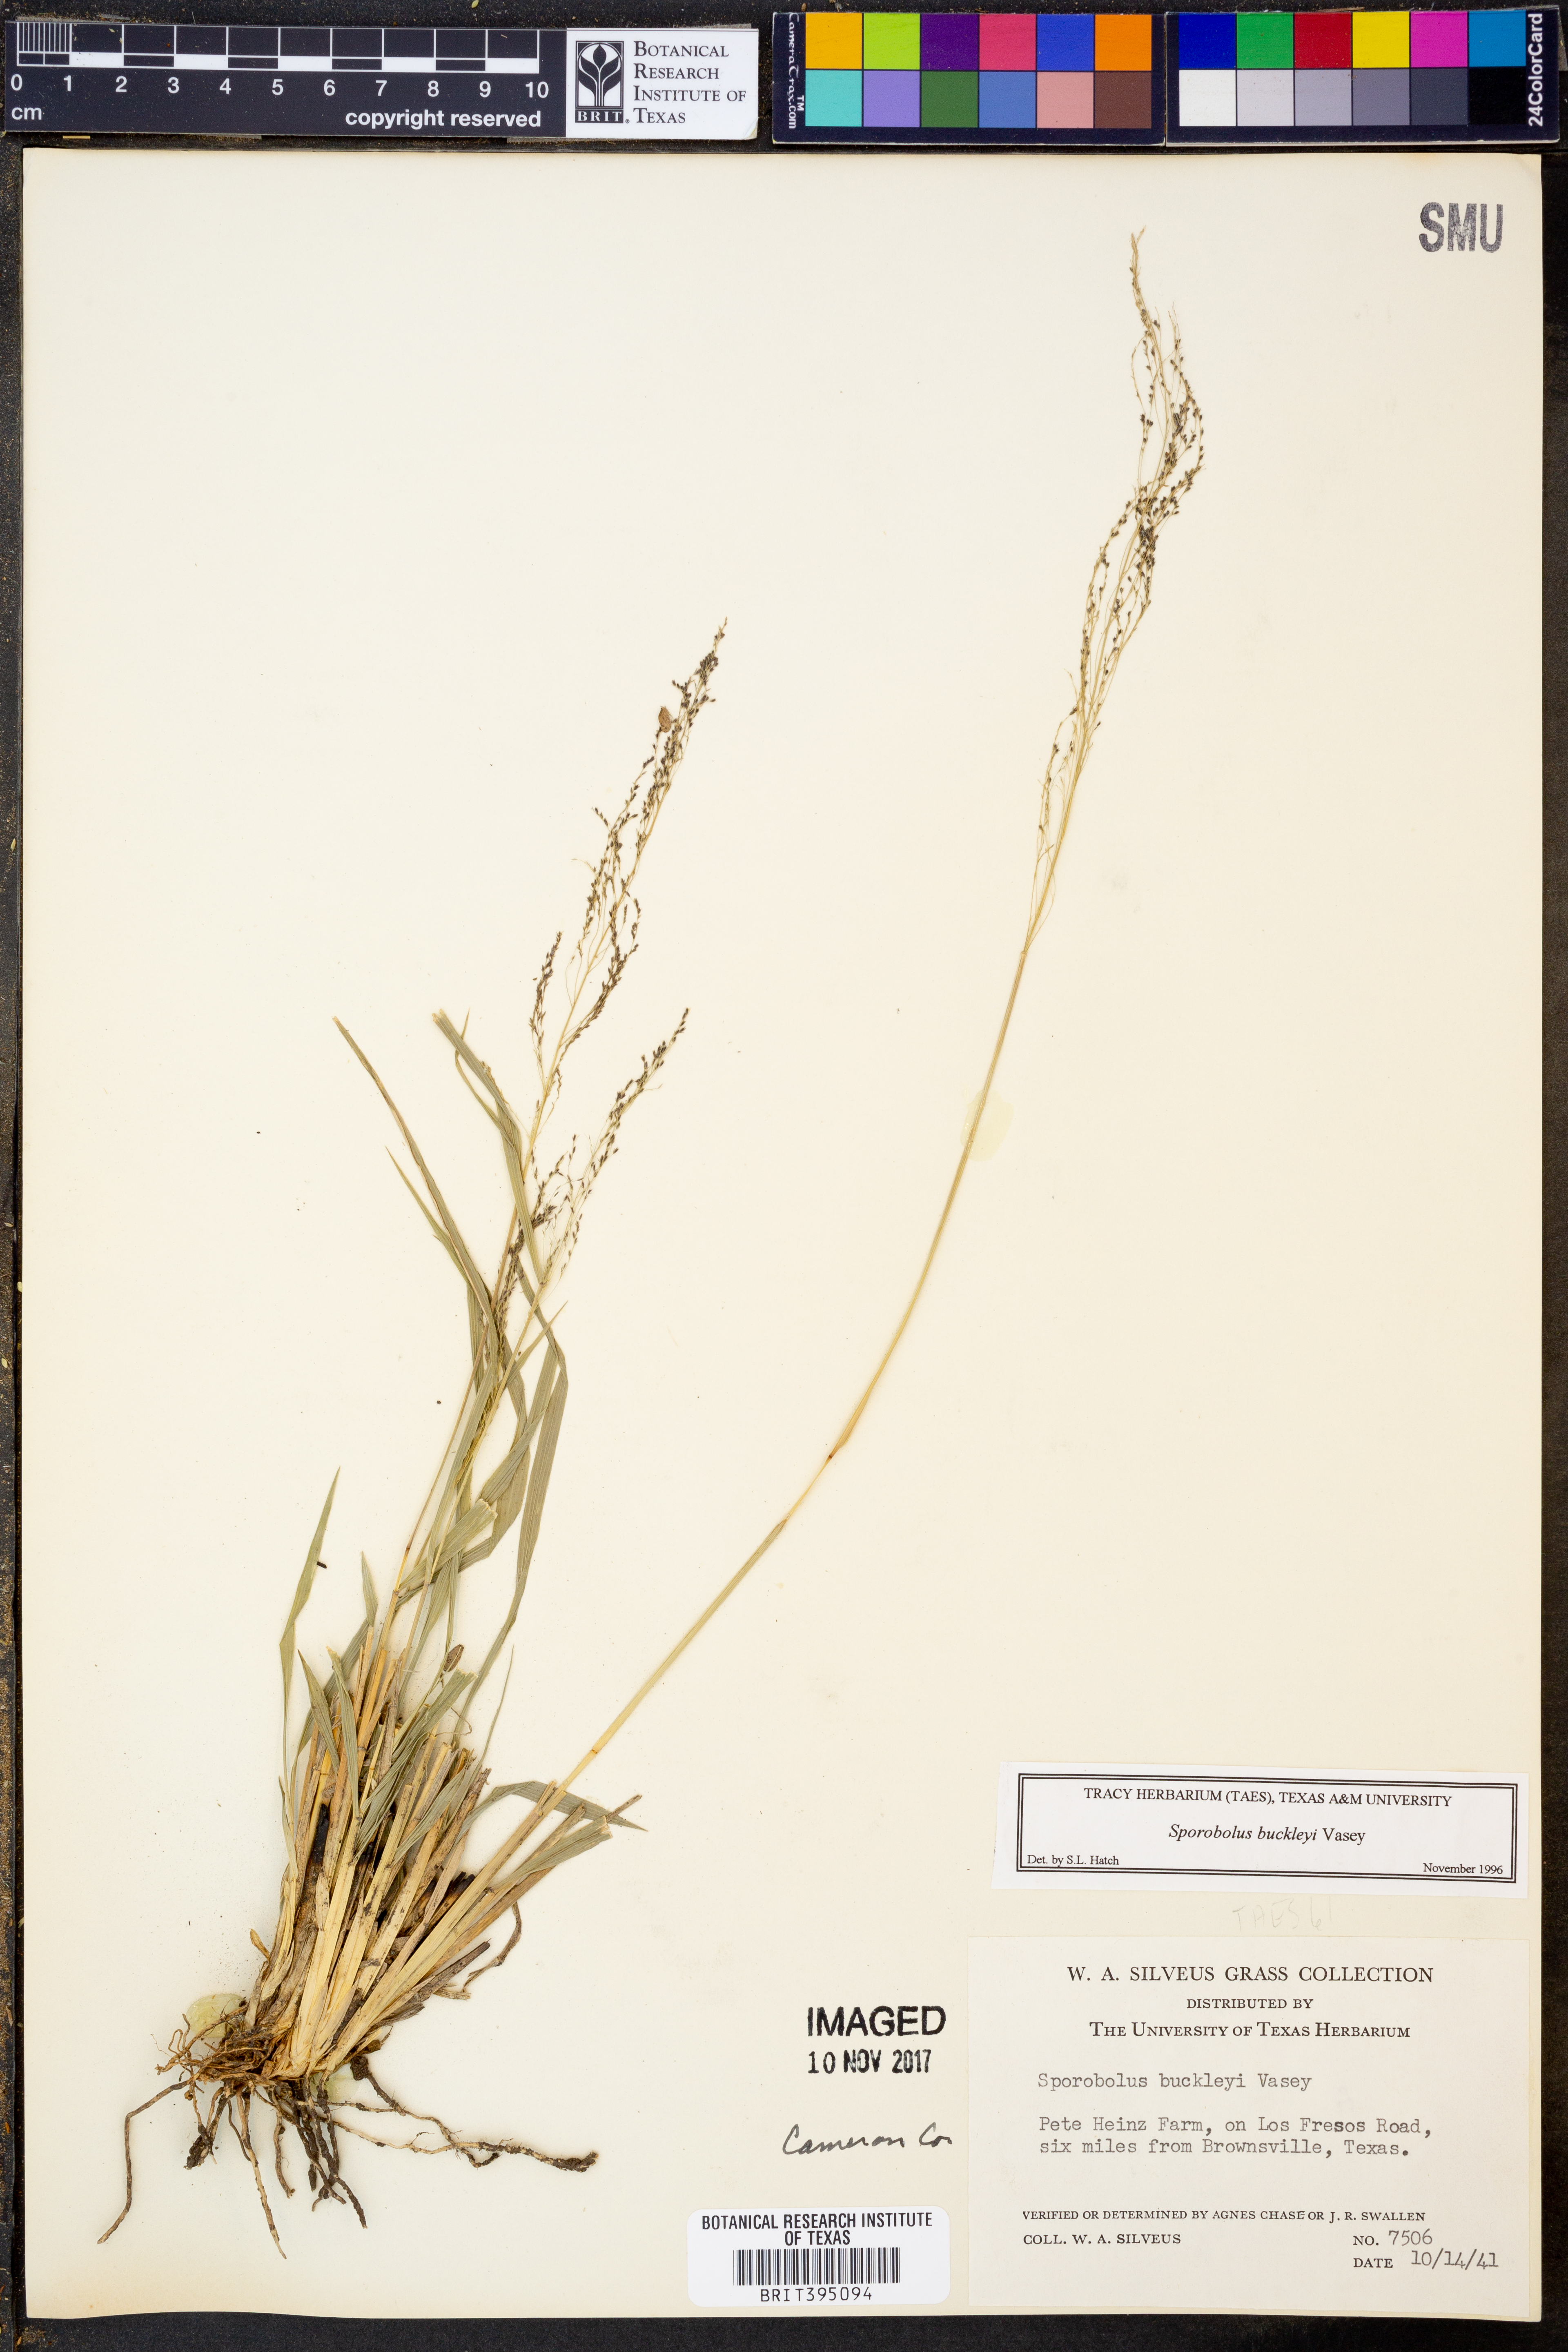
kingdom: Plantae
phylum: Tracheophyta
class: Liliopsida
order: Poales
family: Poaceae
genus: Sporobolus
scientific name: Sporobolus buckleyi
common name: Buckley's dropseed
